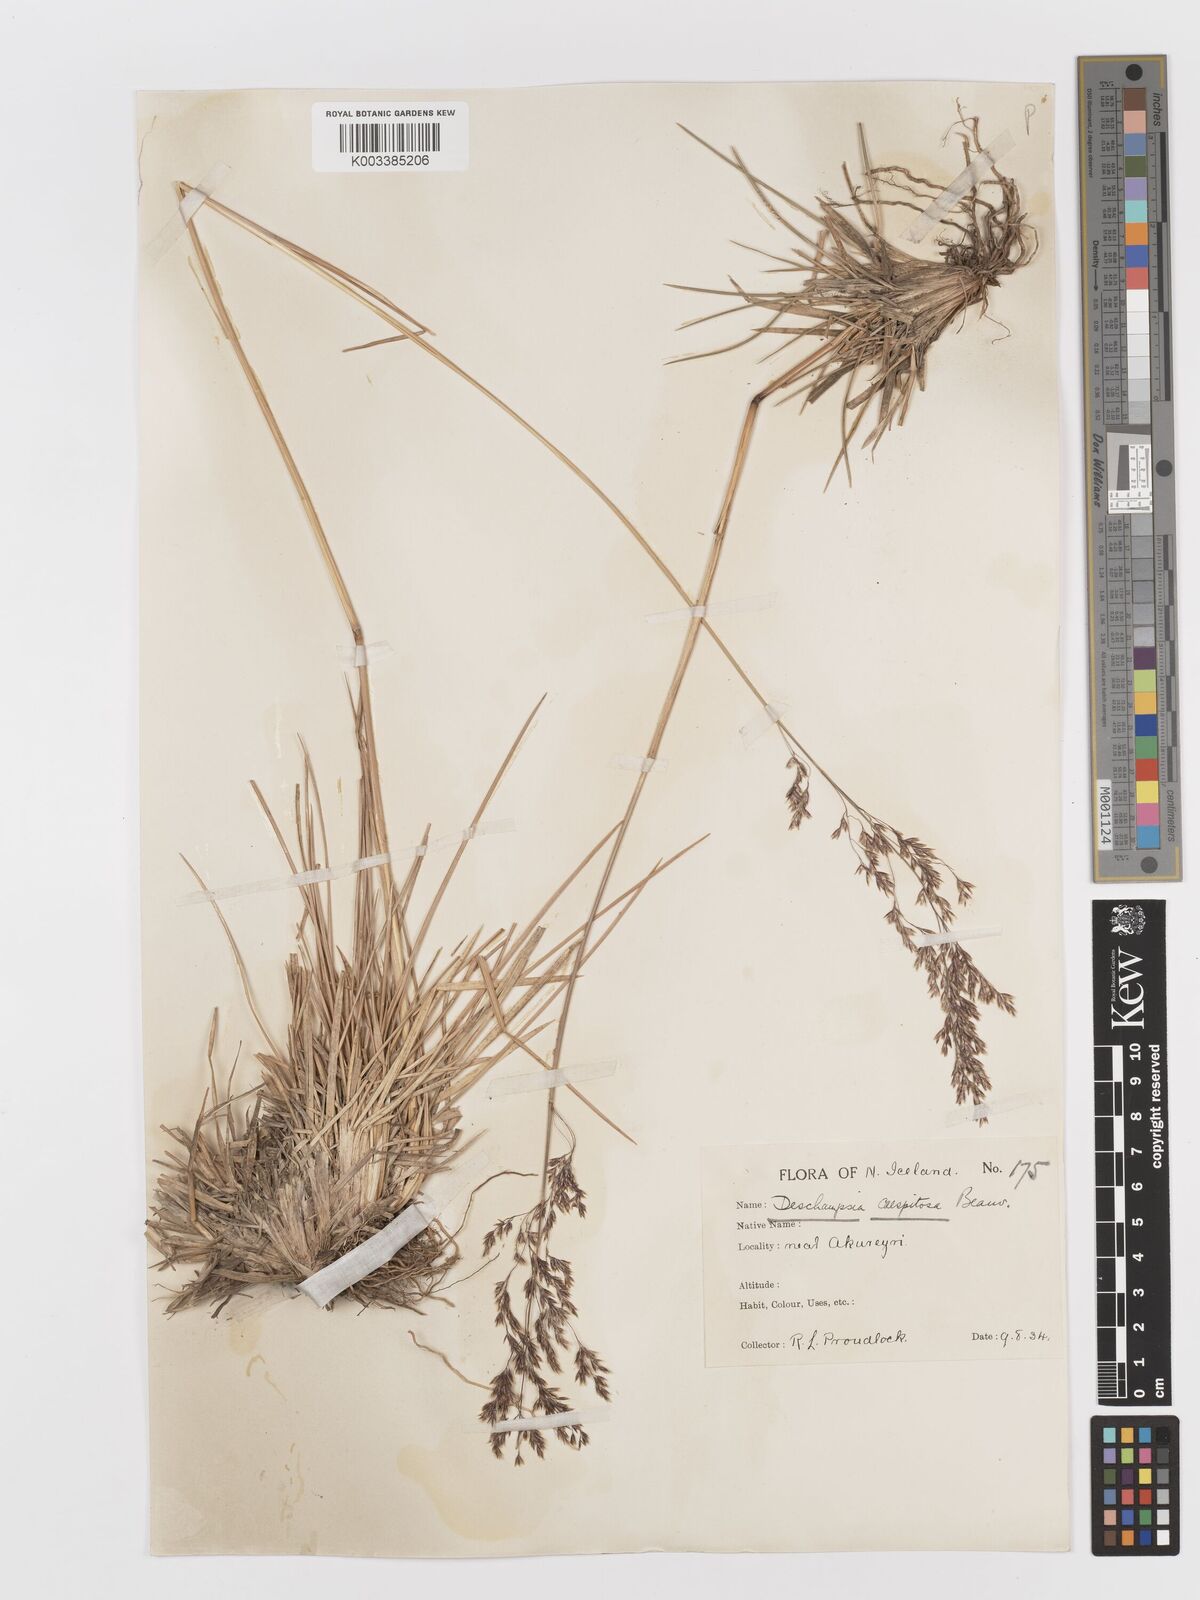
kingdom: Plantae
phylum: Tracheophyta
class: Liliopsida
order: Poales
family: Poaceae
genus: Deschampsia
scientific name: Deschampsia cespitosa
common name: Tufted hair-grass
